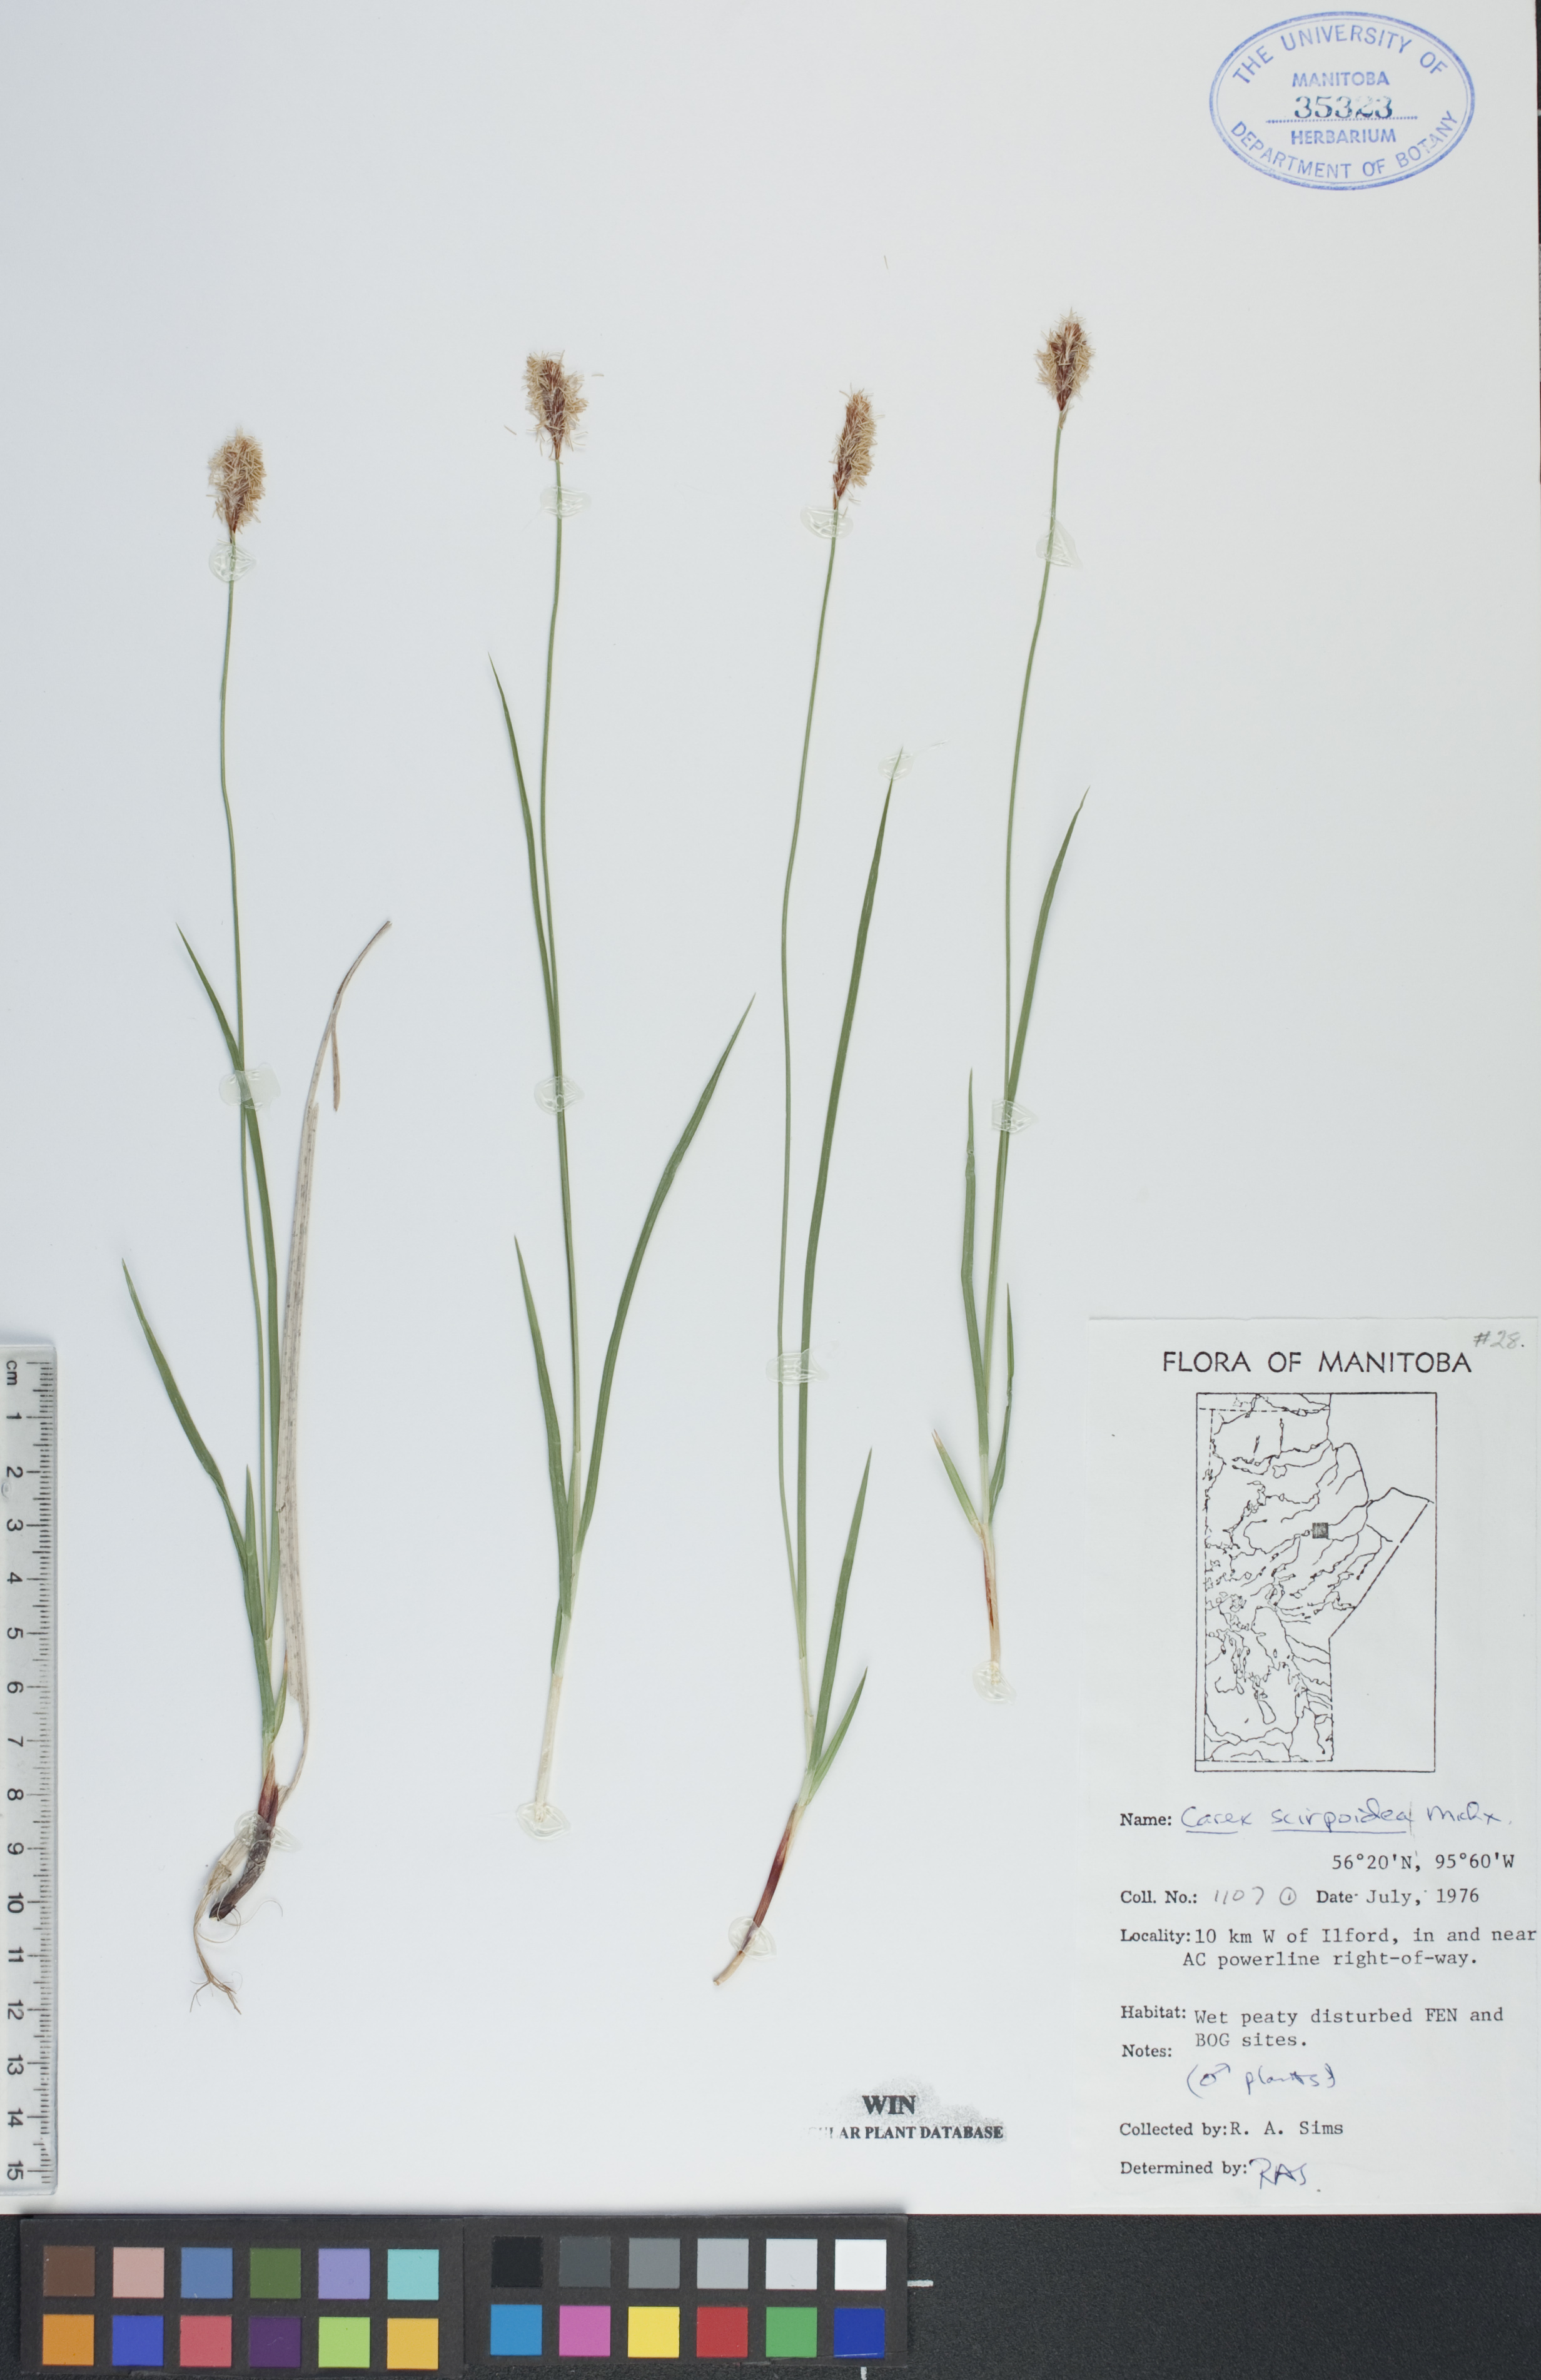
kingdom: Plantae
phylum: Tracheophyta
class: Liliopsida
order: Poales
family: Cyperaceae
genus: Carex
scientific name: Carex scirpoidea
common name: Canada single-spike sedge
